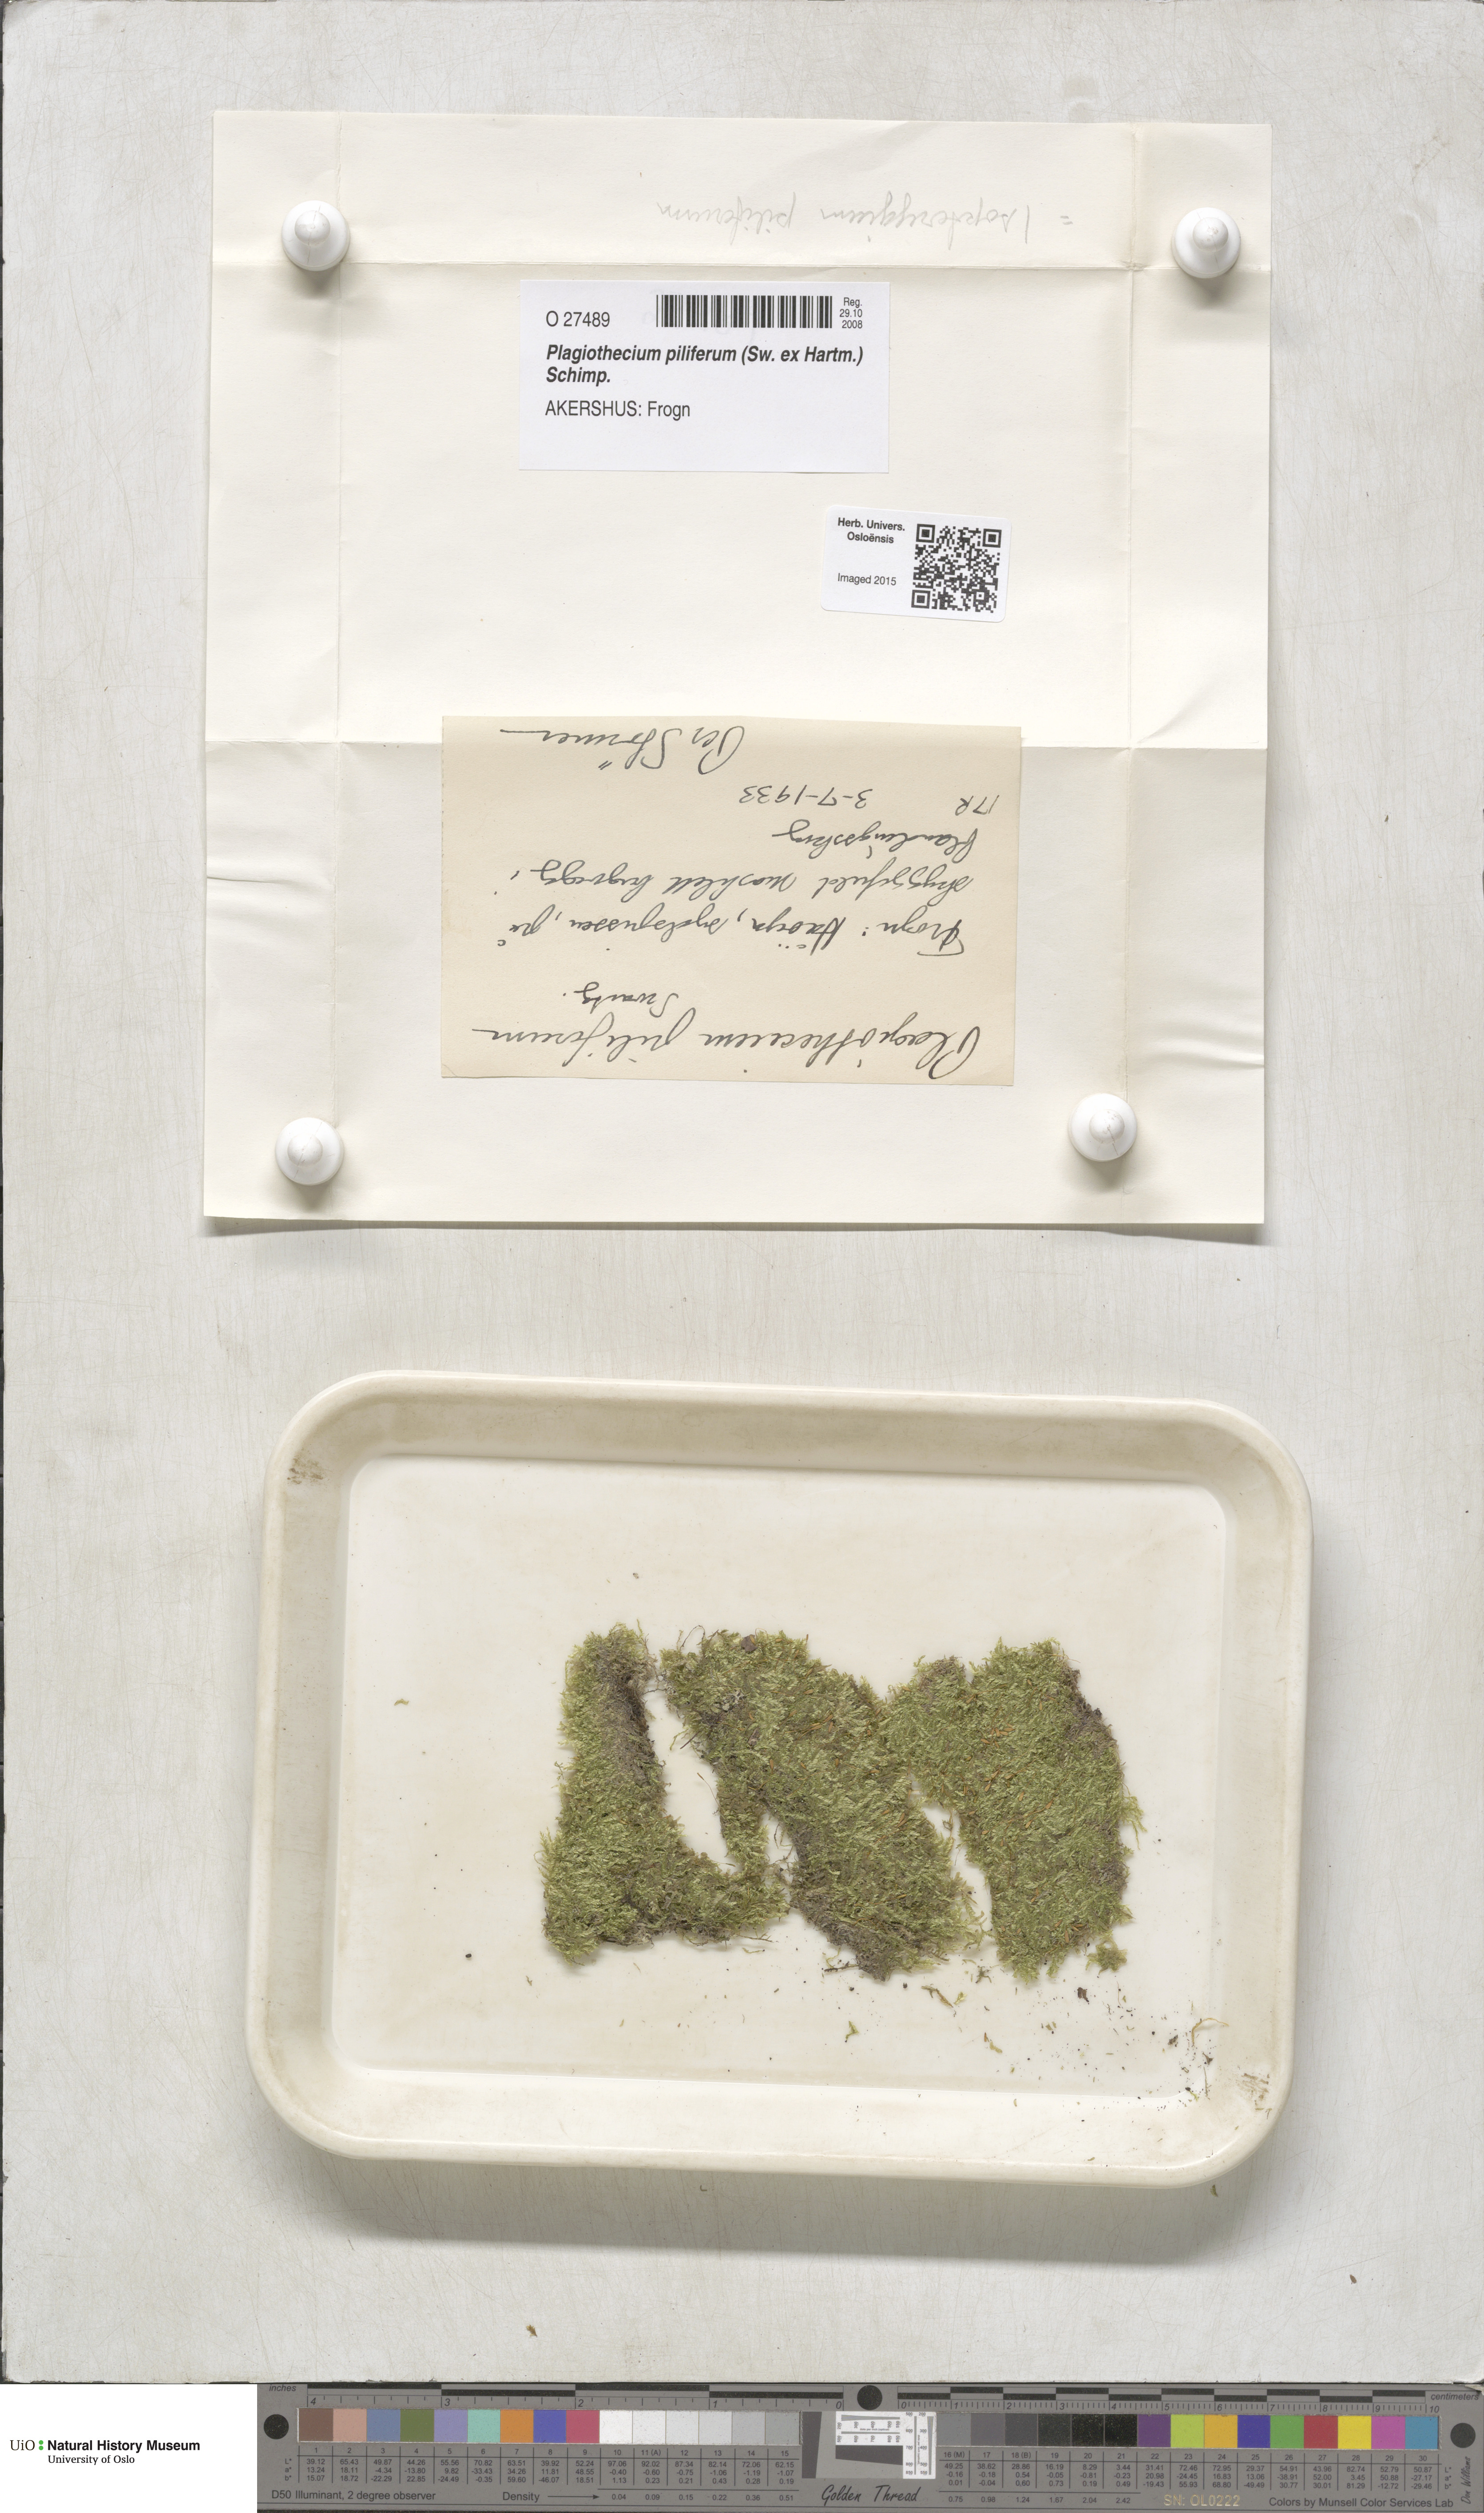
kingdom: Plantae
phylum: Bryophyta
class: Bryopsida
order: Hypnales
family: Plagiotheciaceae
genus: Rectithecium
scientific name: Rectithecium piliferum
